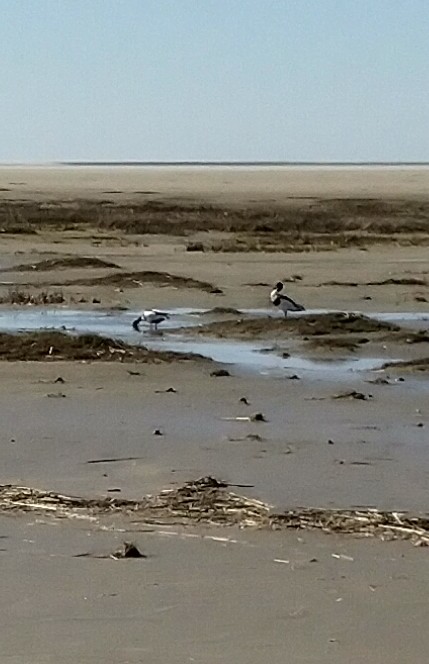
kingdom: Animalia
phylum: Chordata
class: Aves
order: Anseriformes
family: Anatidae
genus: Tadorna
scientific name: Tadorna tadorna
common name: Gravand
